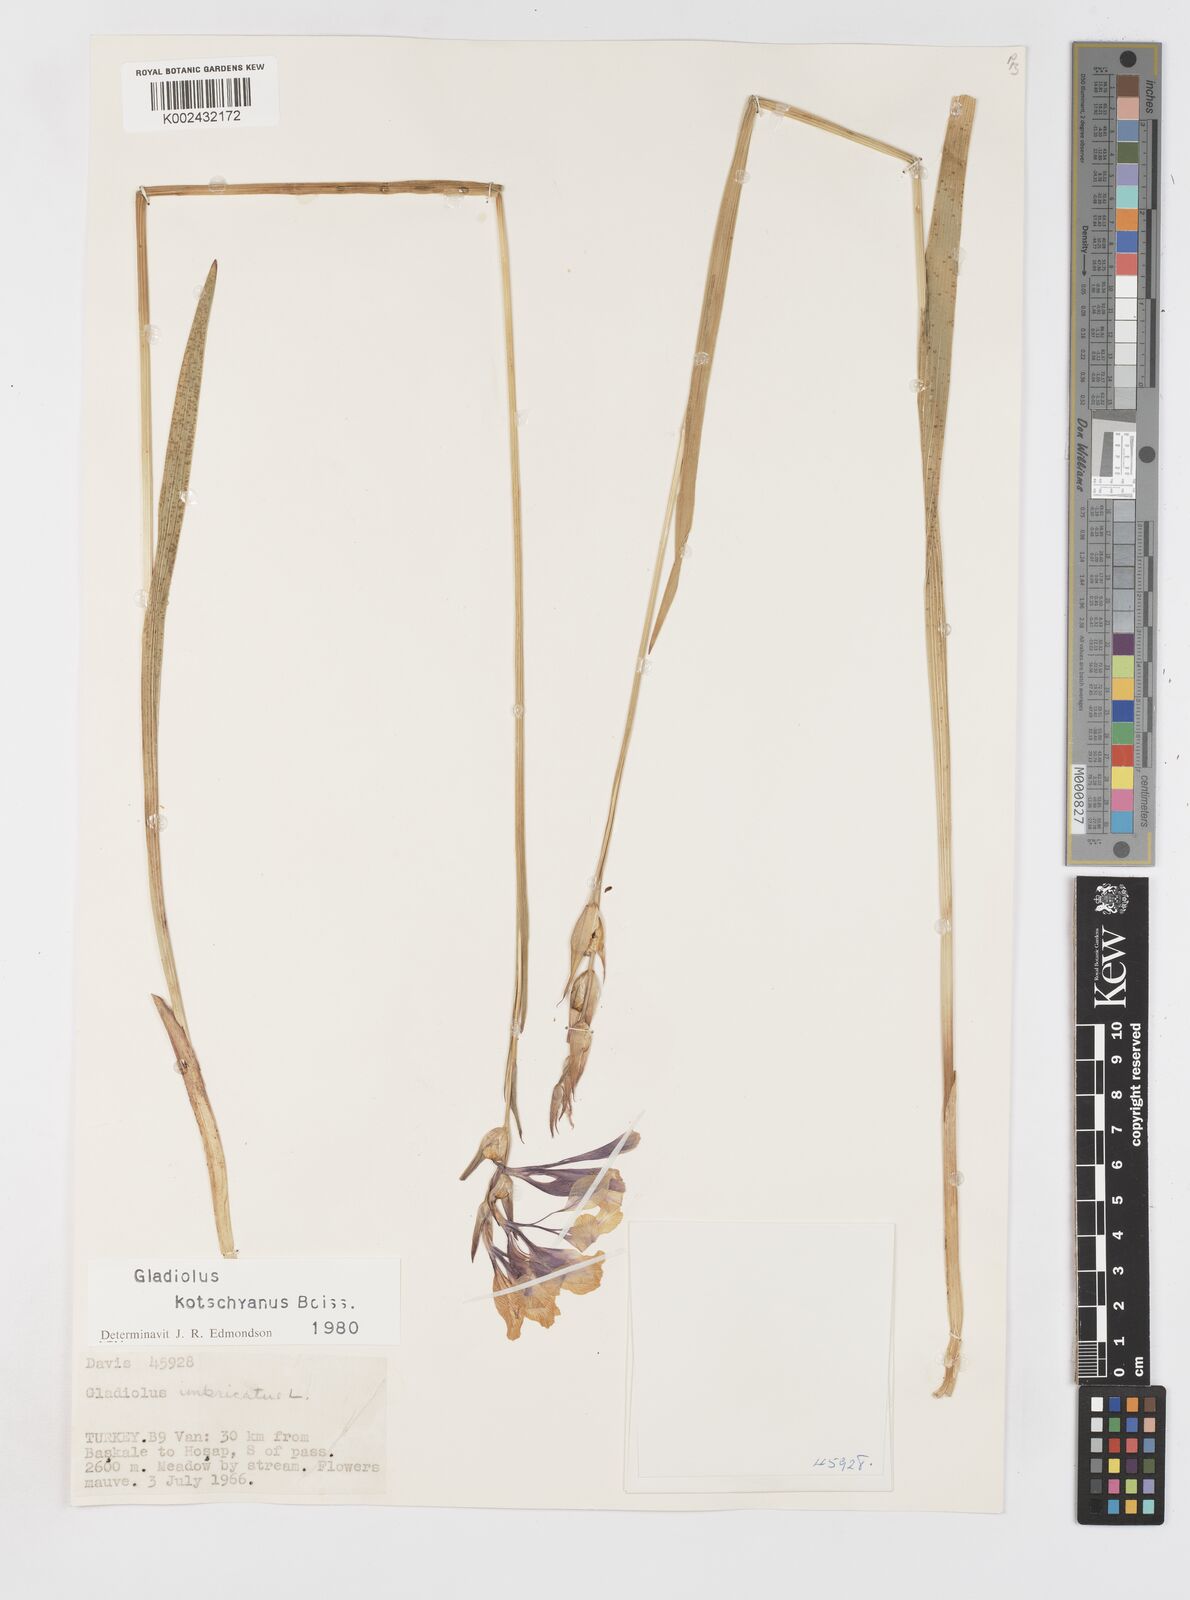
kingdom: Plantae
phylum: Tracheophyta
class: Liliopsida
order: Asparagales
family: Iridaceae
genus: Gladiolus
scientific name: Gladiolus imbricatus
